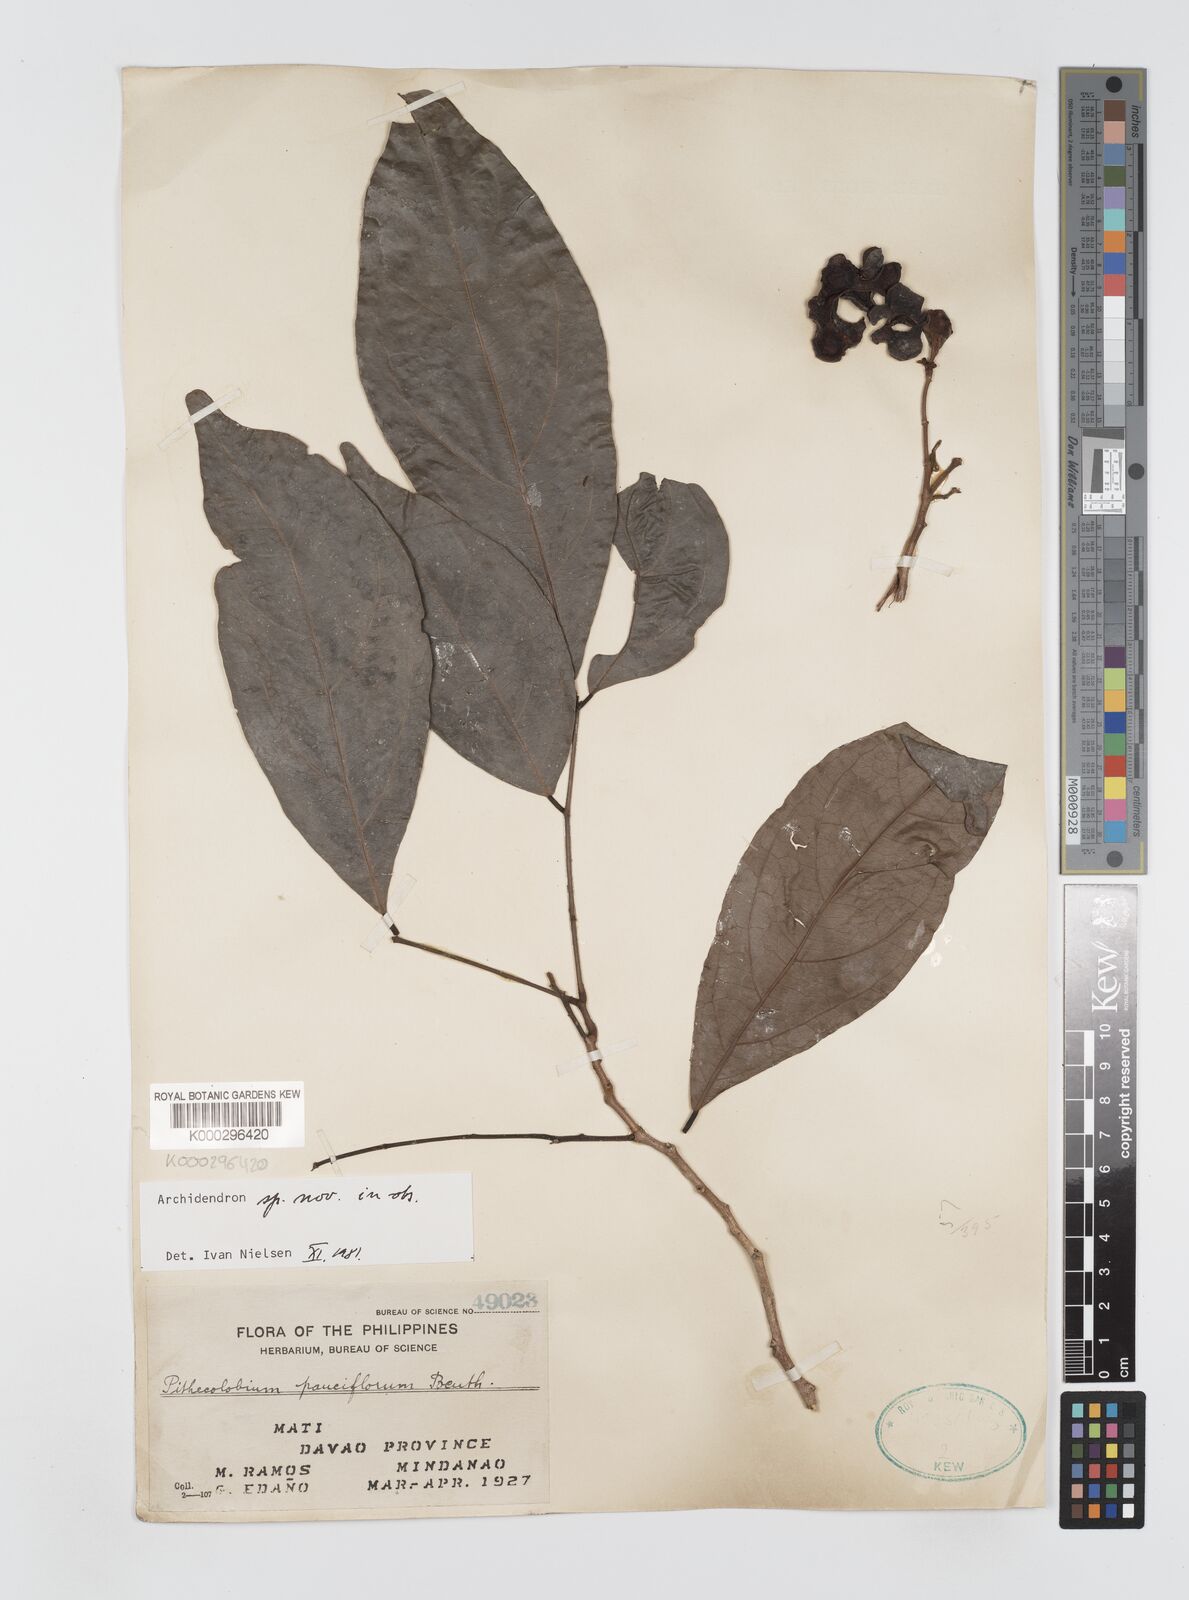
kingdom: Plantae
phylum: Tracheophyta
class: Magnoliopsida
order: Fabales
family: Fabaceae
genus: Archidendron
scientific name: Archidendron pauciflorum
